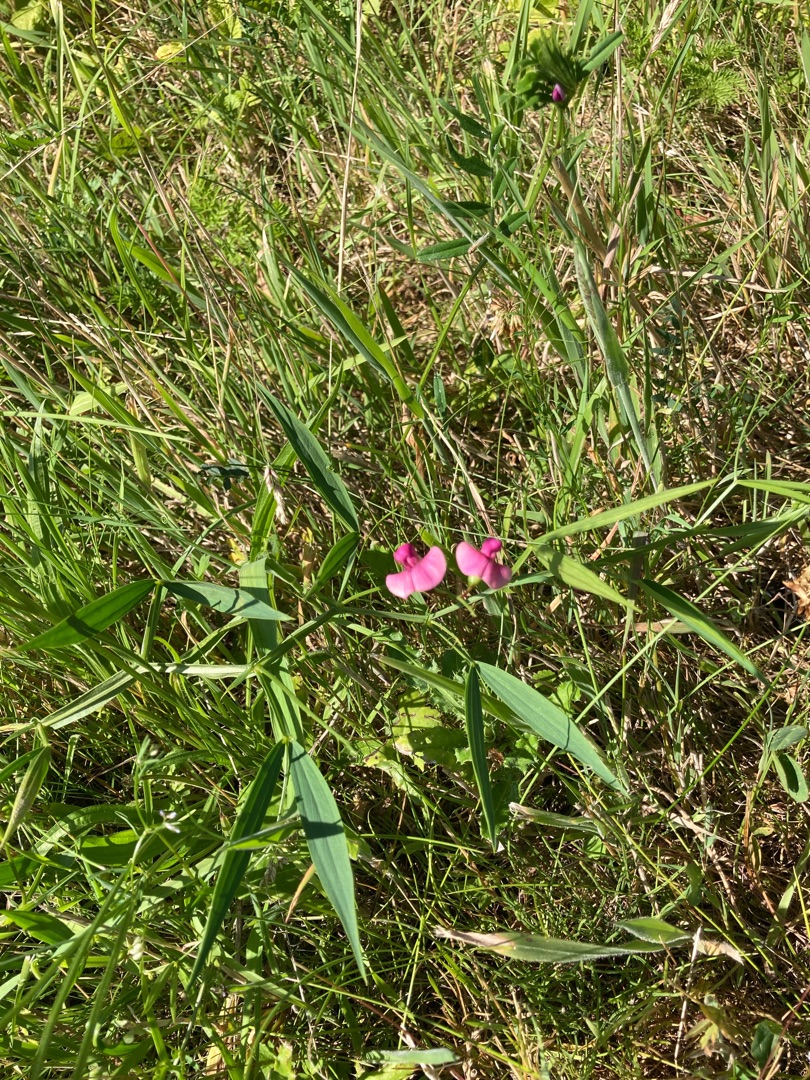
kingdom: Plantae
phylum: Tracheophyta
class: Magnoliopsida
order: Fabales
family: Fabaceae
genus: Lathyrus
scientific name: Lathyrus sylvestris
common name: Skov-fladbælg
